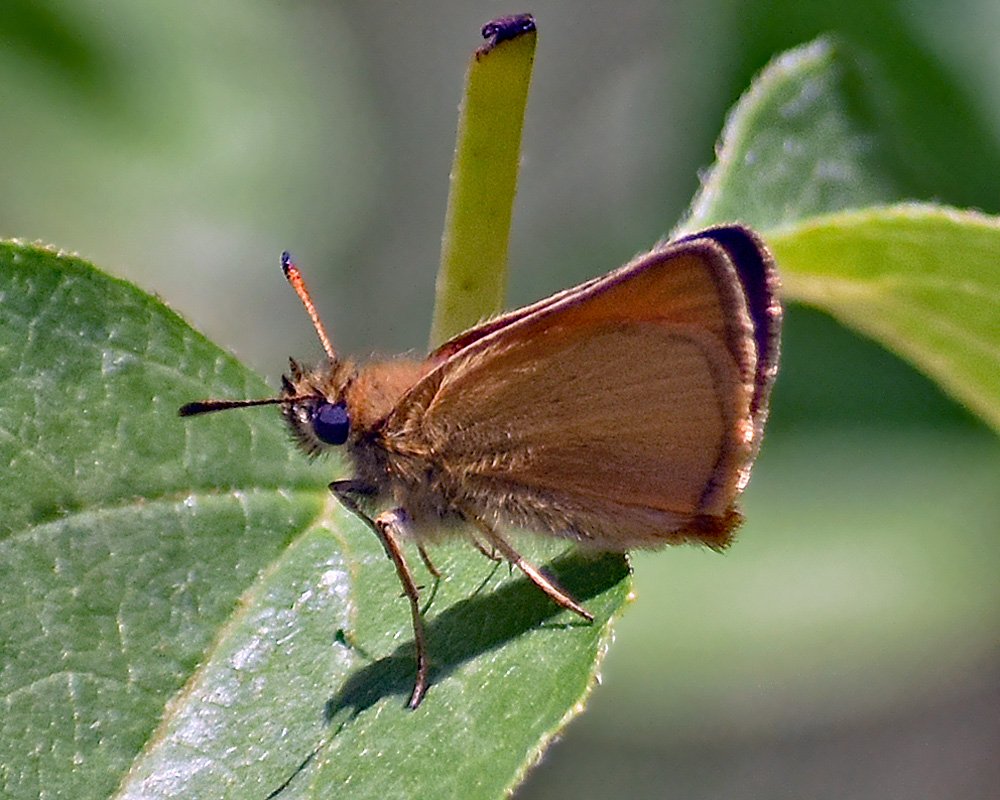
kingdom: Animalia
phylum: Arthropoda
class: Insecta
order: Lepidoptera
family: Hesperiidae
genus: Thymelicus
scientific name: Thymelicus lineola
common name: European Skipper
